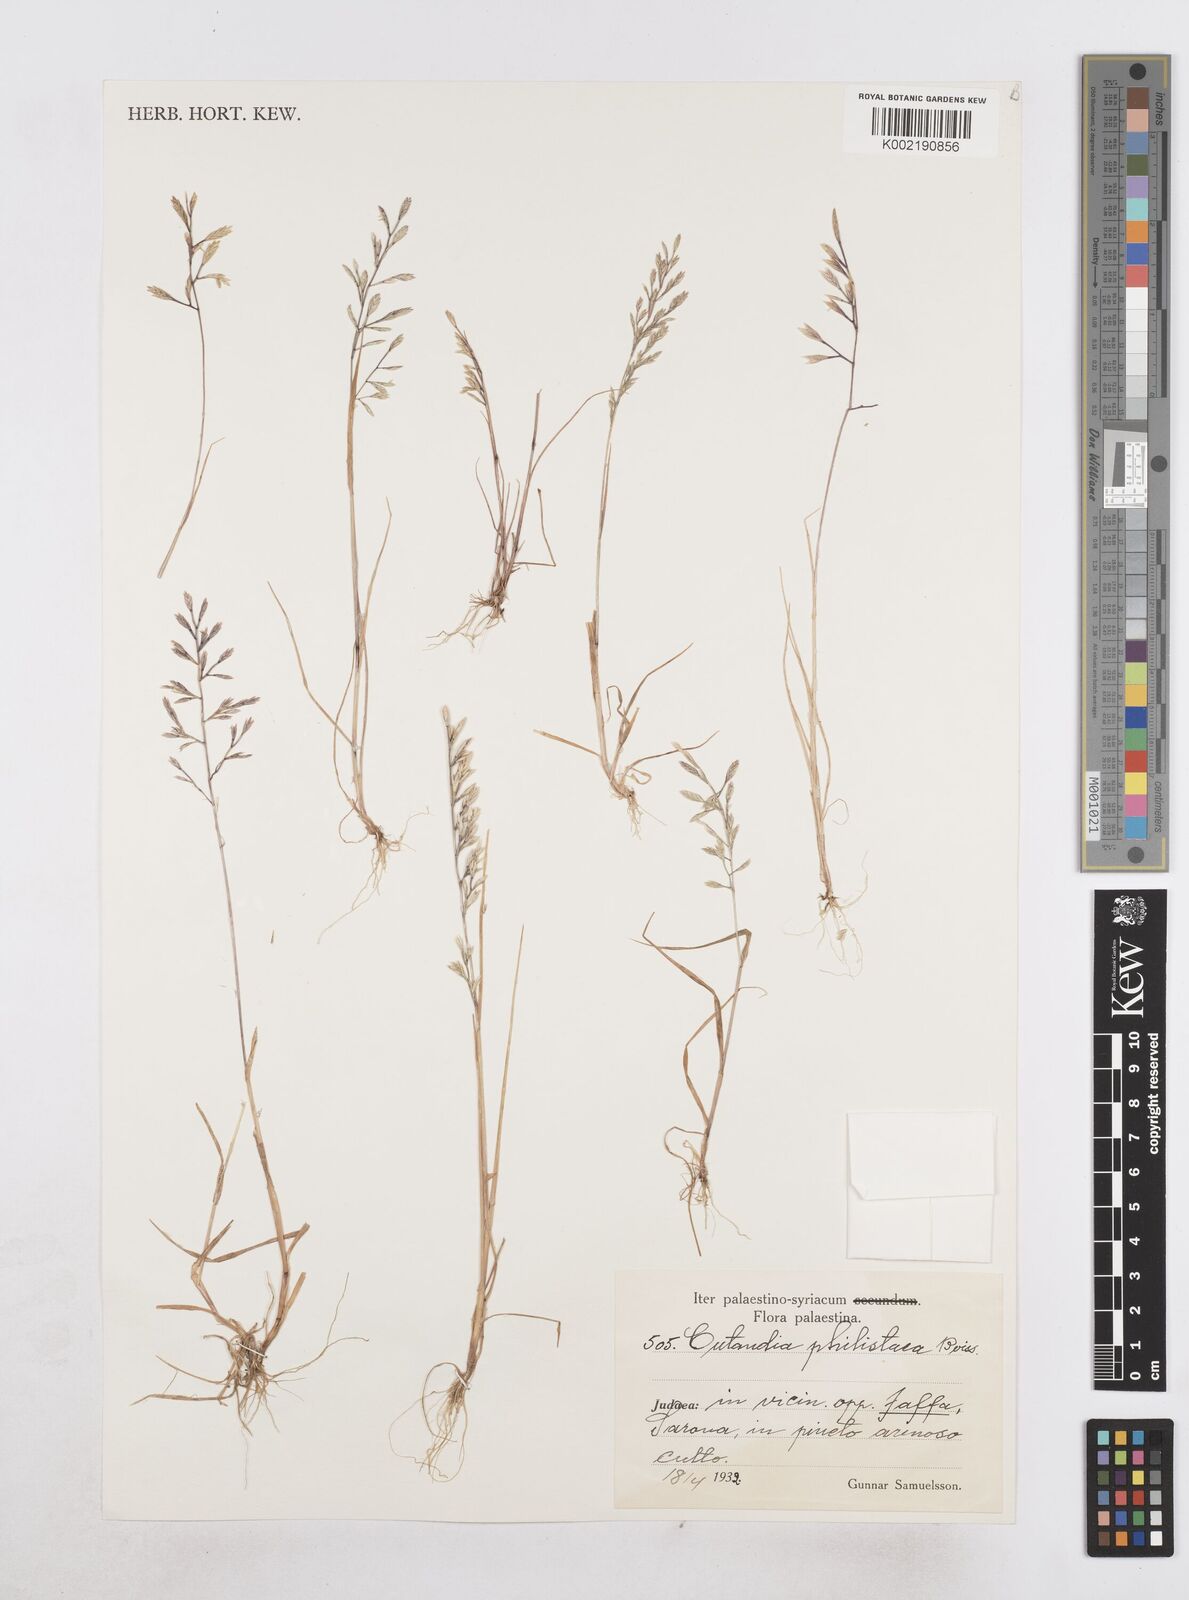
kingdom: Plantae
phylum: Tracheophyta
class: Liliopsida
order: Poales
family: Poaceae
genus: Desmazeria
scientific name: Desmazeria philistaea
